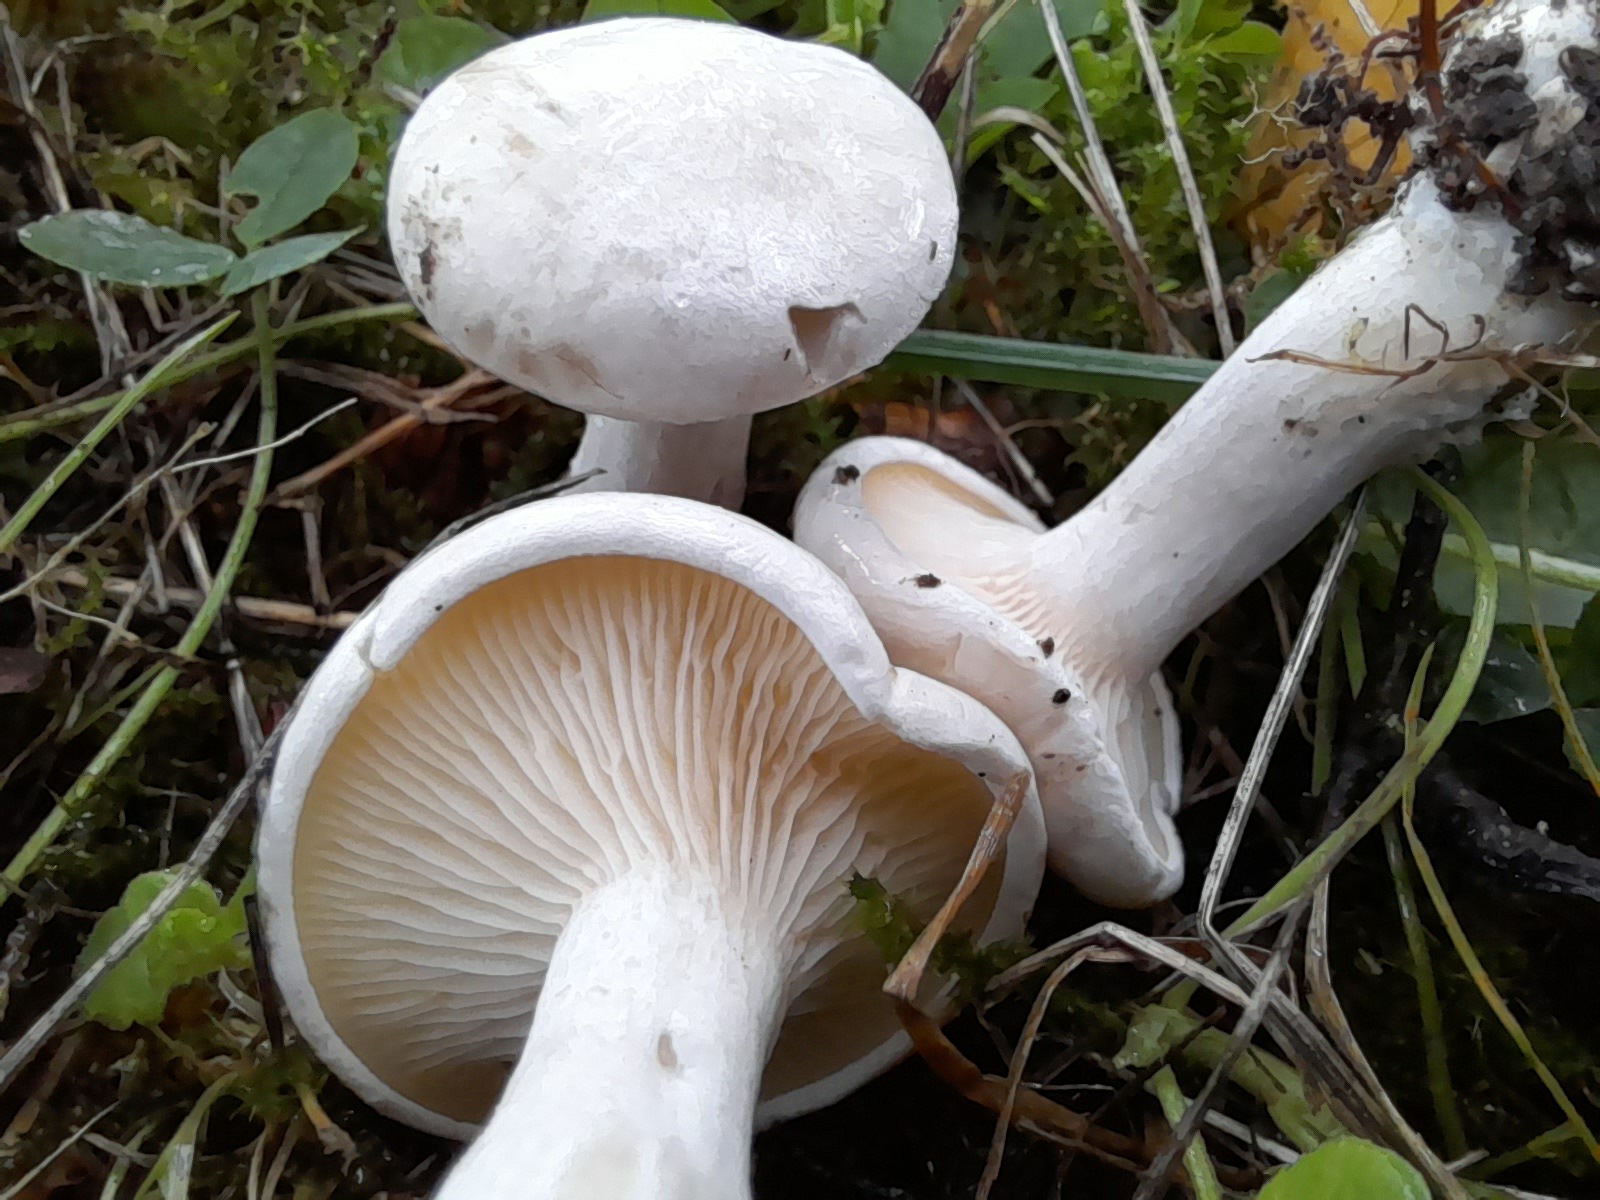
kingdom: Fungi
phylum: Basidiomycota
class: Agaricomycetes
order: Agaricales
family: Entolomataceae
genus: Clitopilus
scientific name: Clitopilus prunulus
